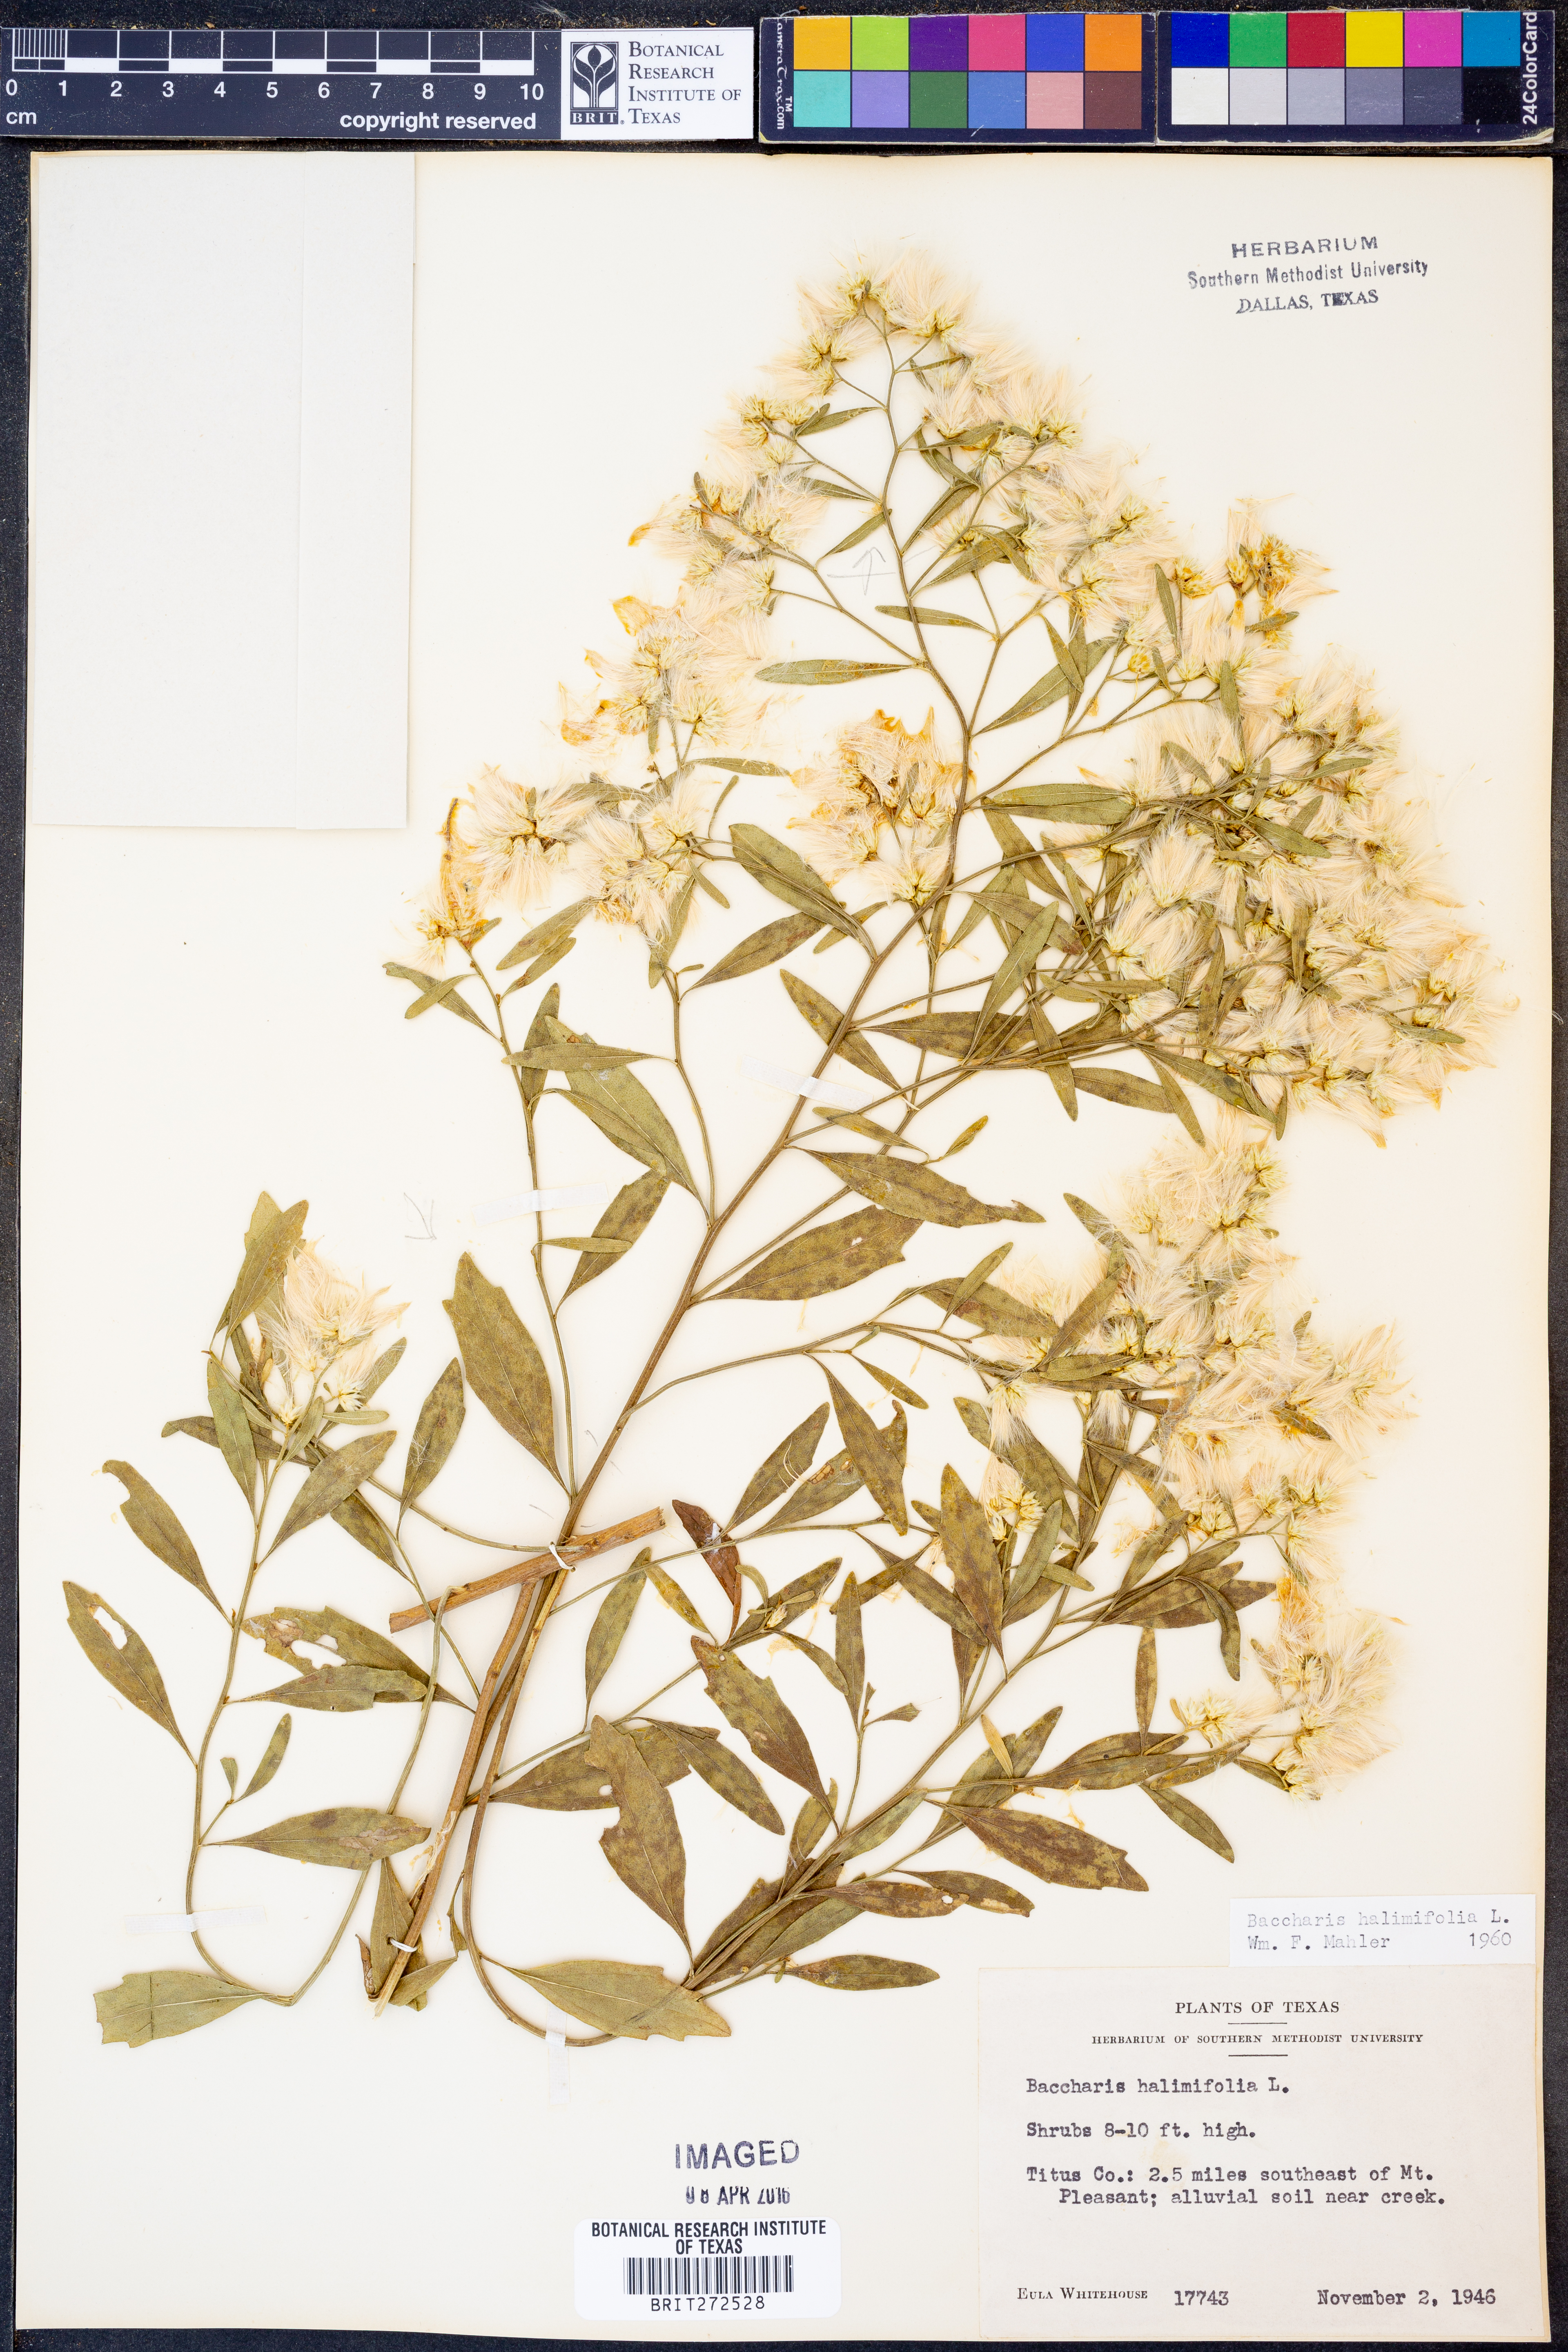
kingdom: Plantae
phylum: Tracheophyta
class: Magnoliopsida
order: Asterales
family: Asteraceae
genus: Nidorella
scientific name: Nidorella ivifolia
